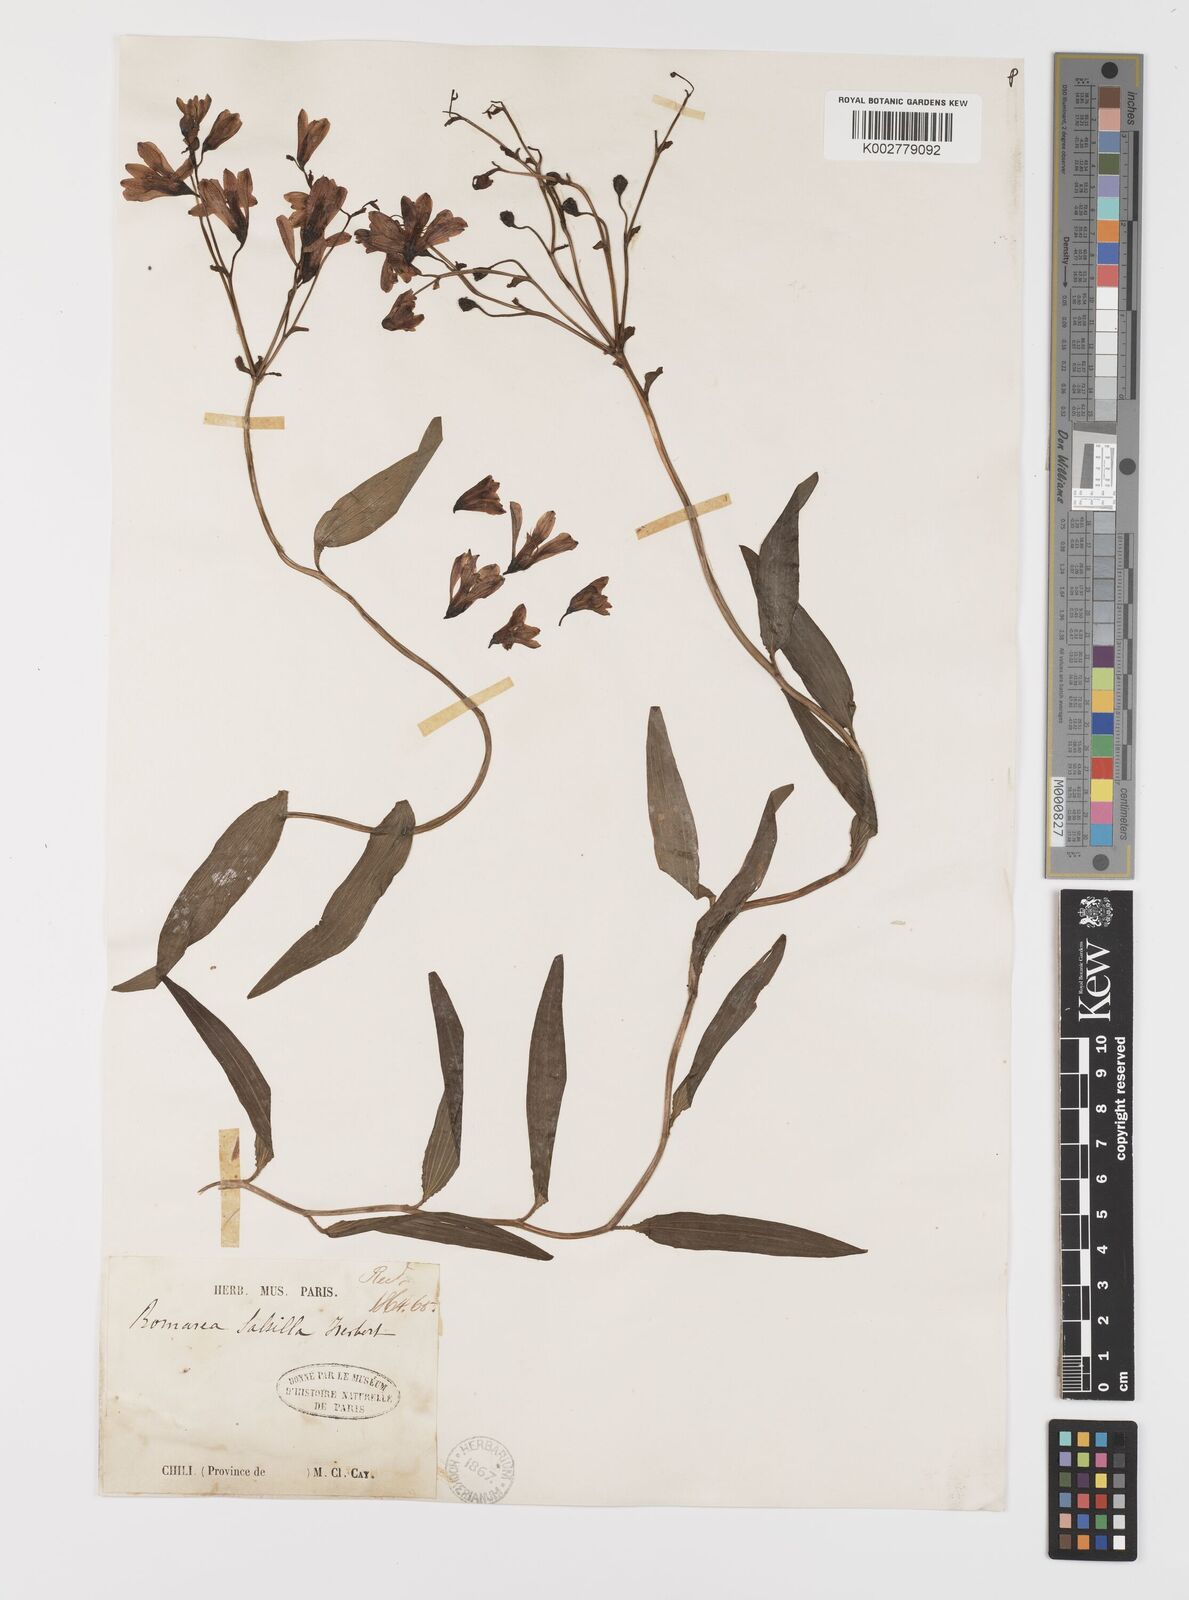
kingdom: Plantae
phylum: Tracheophyta
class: Liliopsida
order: Liliales
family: Alstroemeriaceae
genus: Bomarea
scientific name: Bomarea edulis
